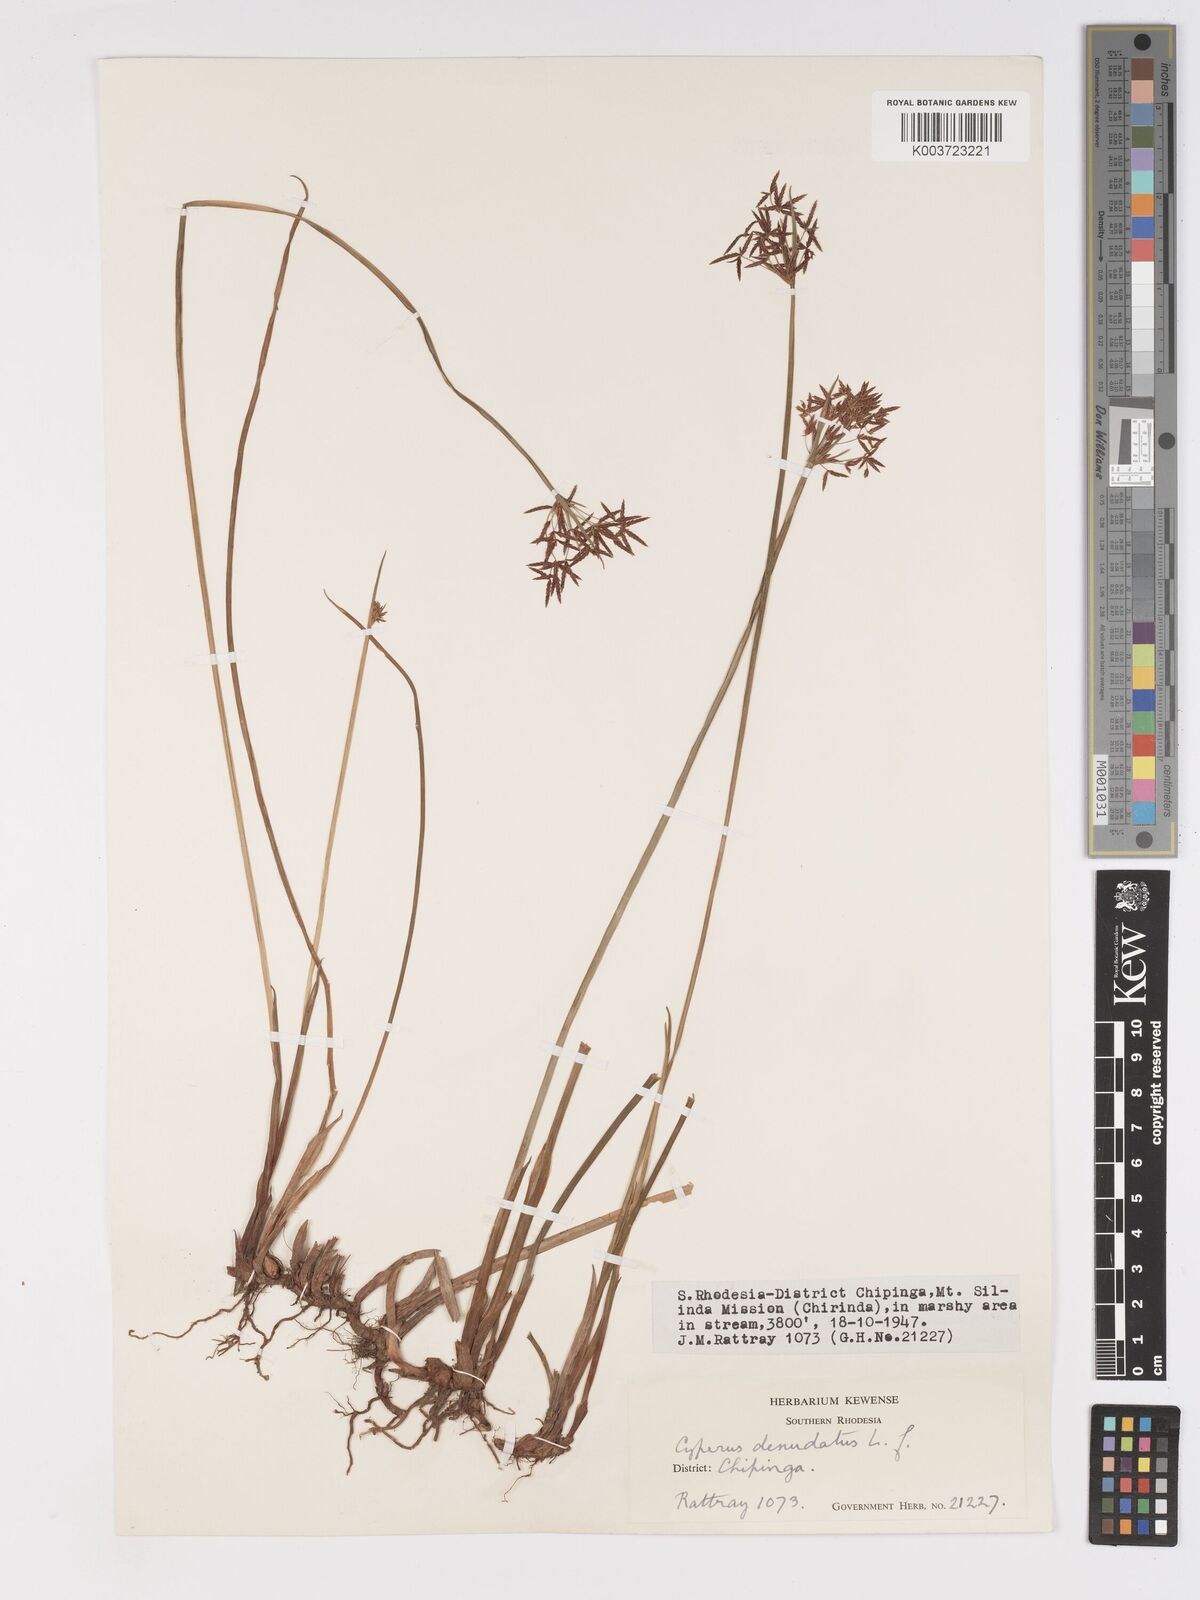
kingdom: Plantae
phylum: Tracheophyta
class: Liliopsida
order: Poales
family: Cyperaceae
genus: Cyperus
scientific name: Cyperus haspan
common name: Haspan flatsedge
